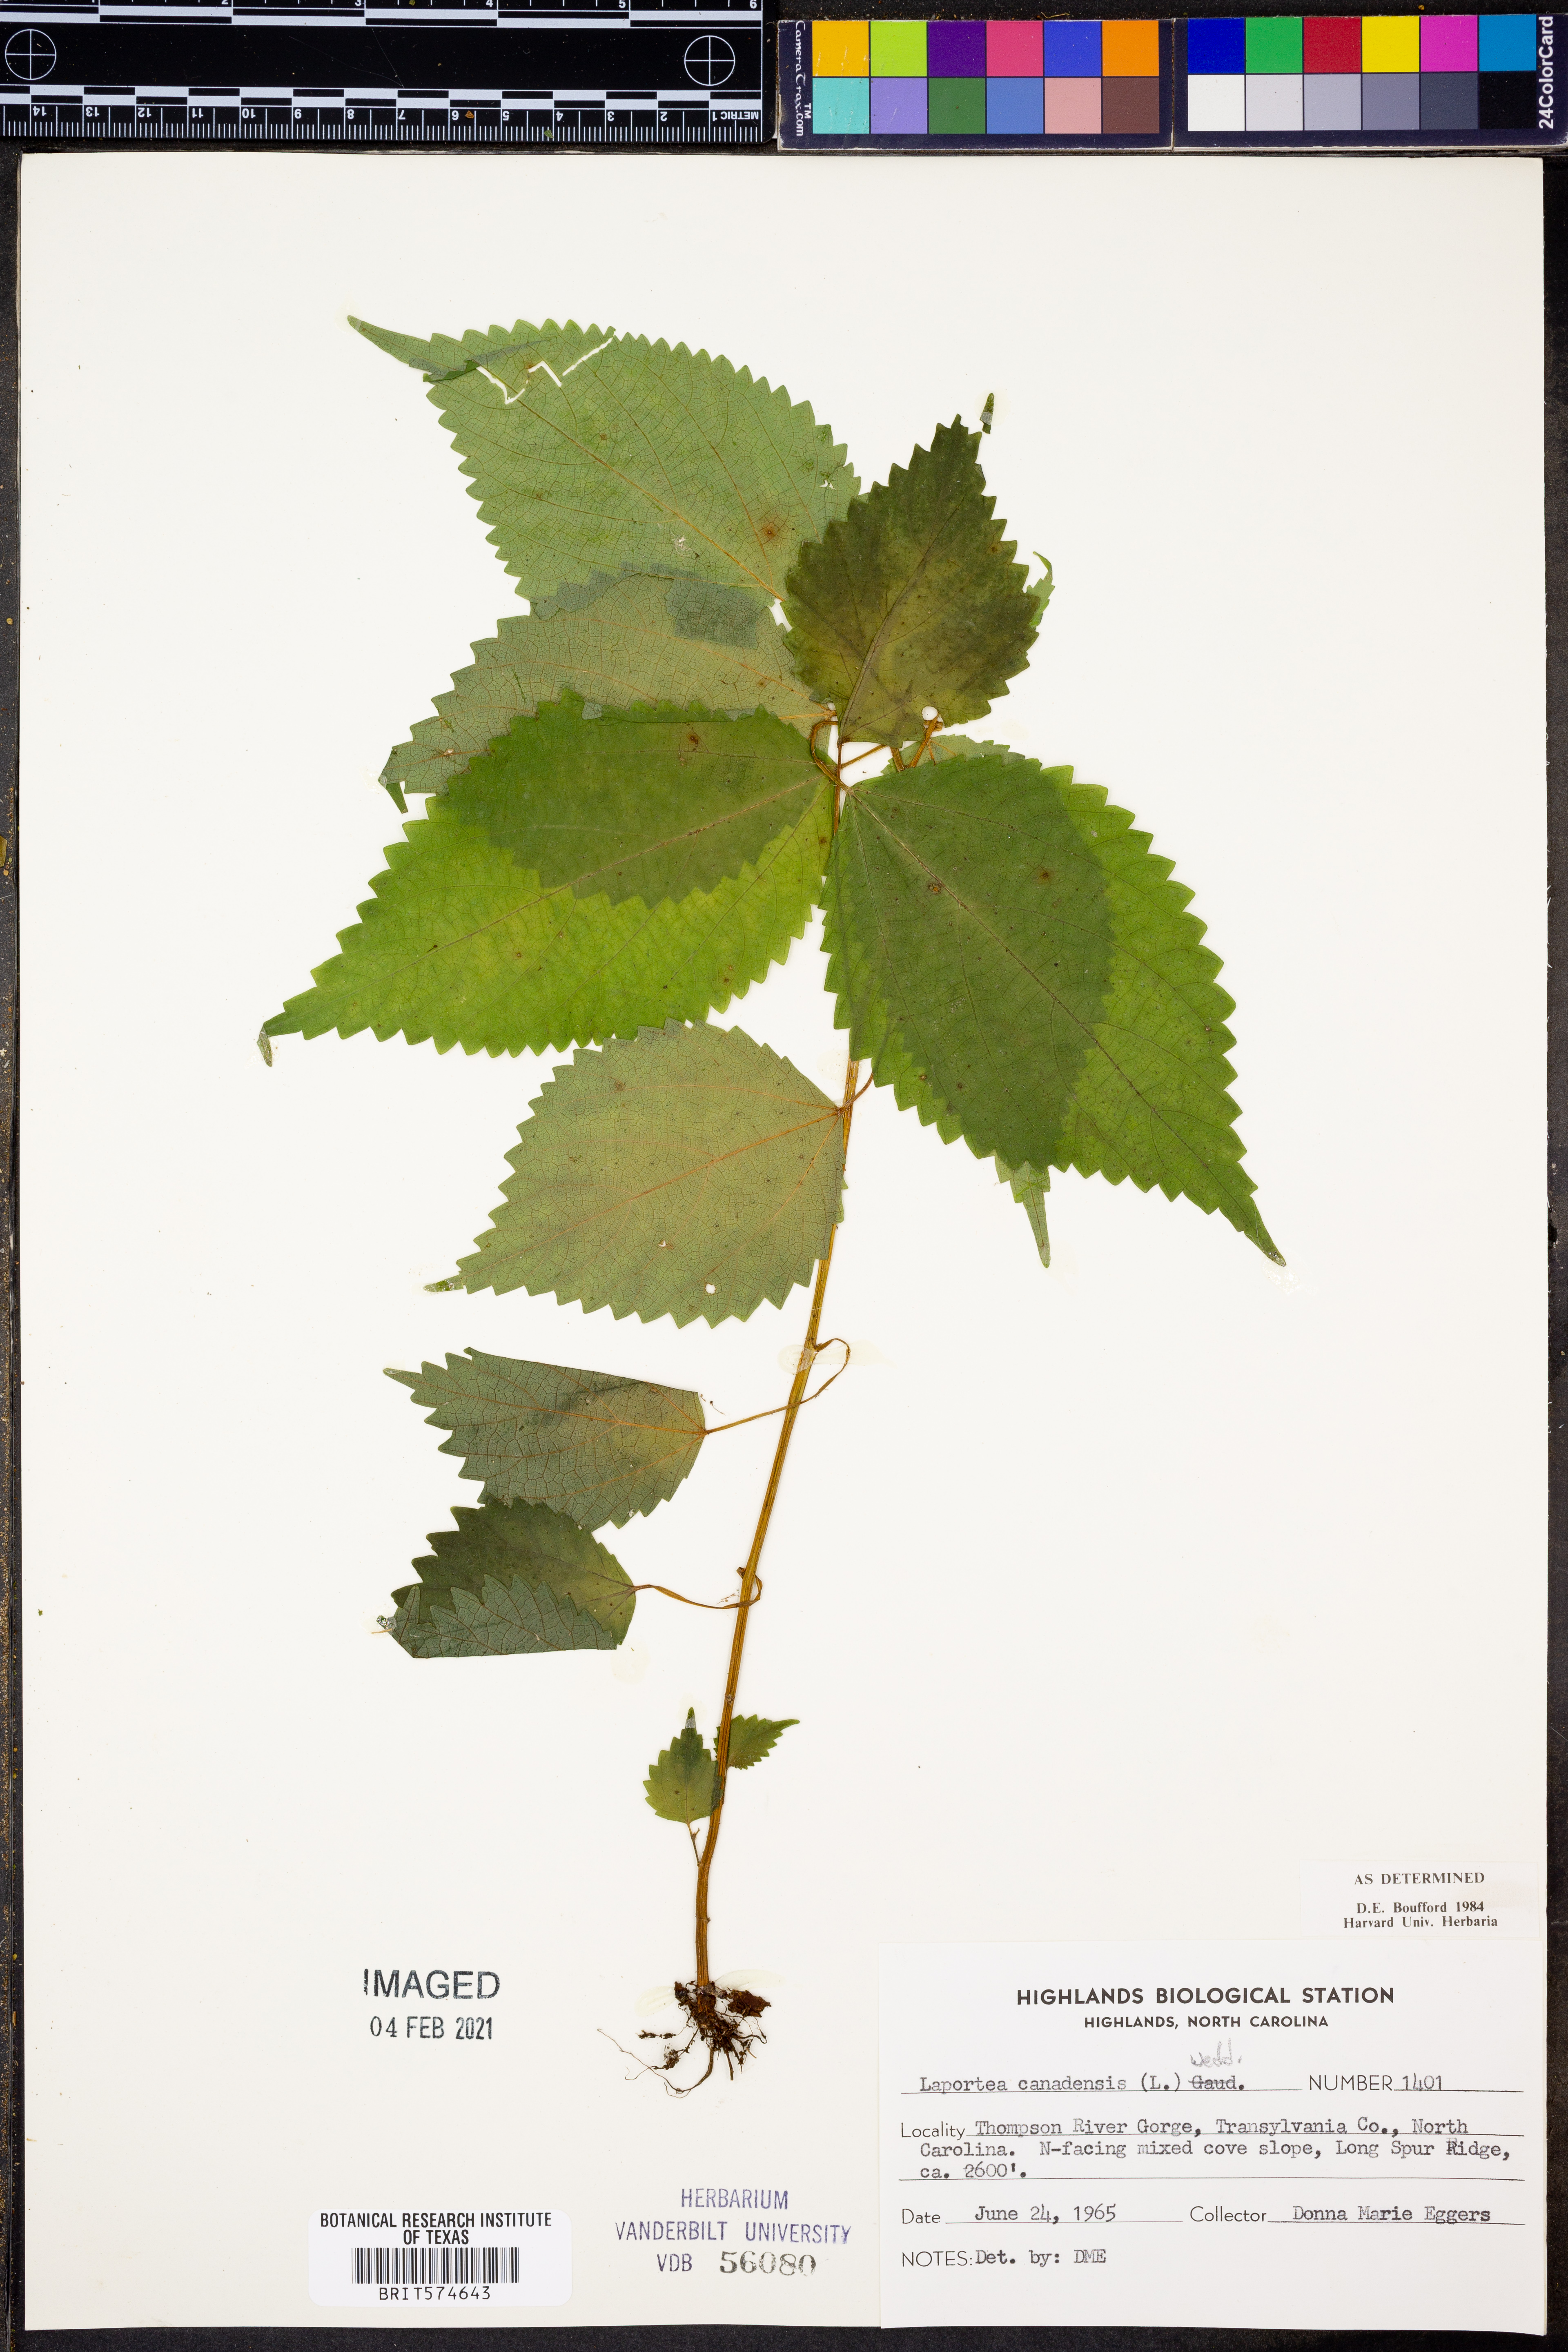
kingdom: Plantae
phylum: Tracheophyta
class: Magnoliopsida
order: Rosales
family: Urticaceae
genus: Laportea
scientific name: Laportea canadensis
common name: Canada nettle
